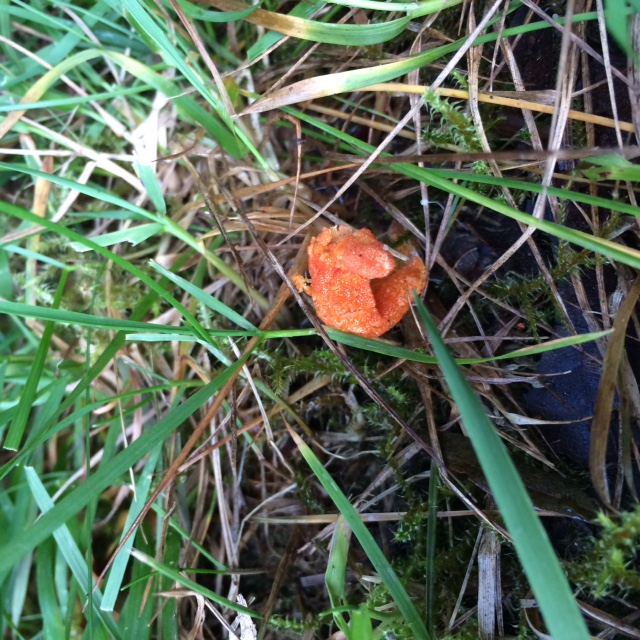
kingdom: Fungi
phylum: Ascomycota
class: Sordariomycetes
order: Hypocreales
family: Cordycipitaceae
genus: Cordyceps
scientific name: Cordyceps militaris
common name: puppe-snyltekølle
